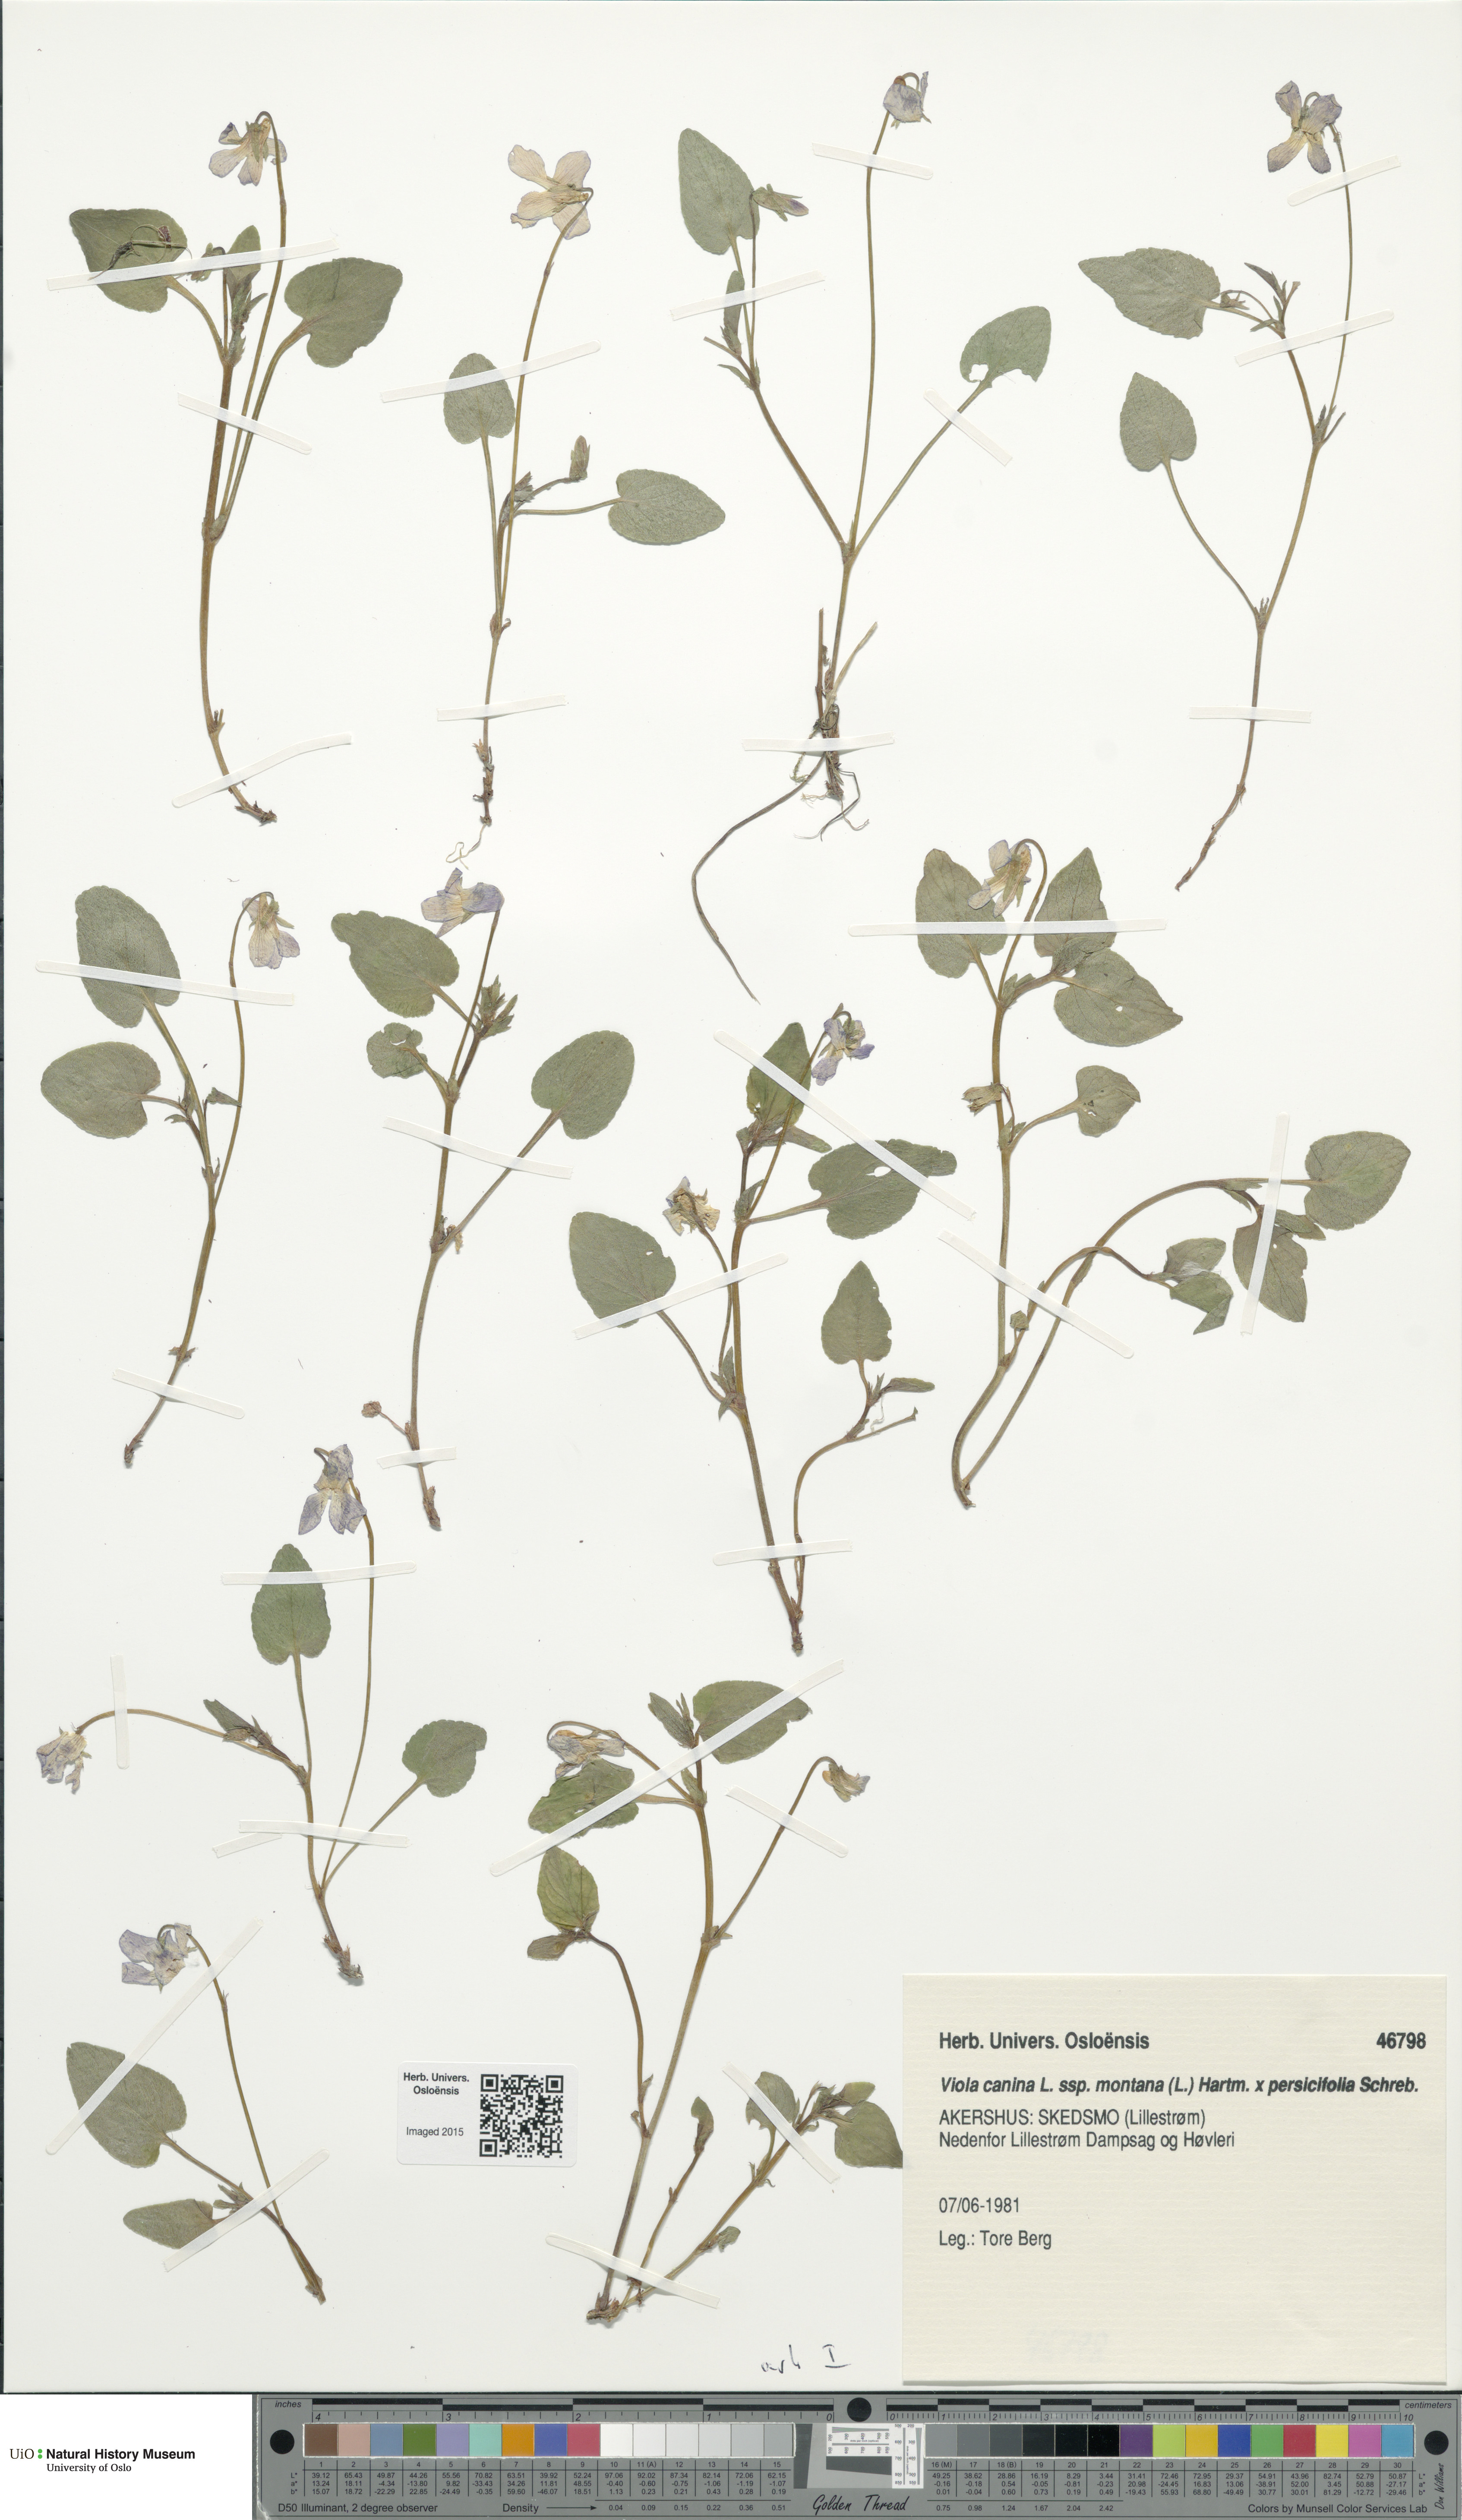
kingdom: Plantae
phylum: Tracheophyta
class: Magnoliopsida
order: Malpighiales
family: Violaceae
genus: Viola
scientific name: Viola
